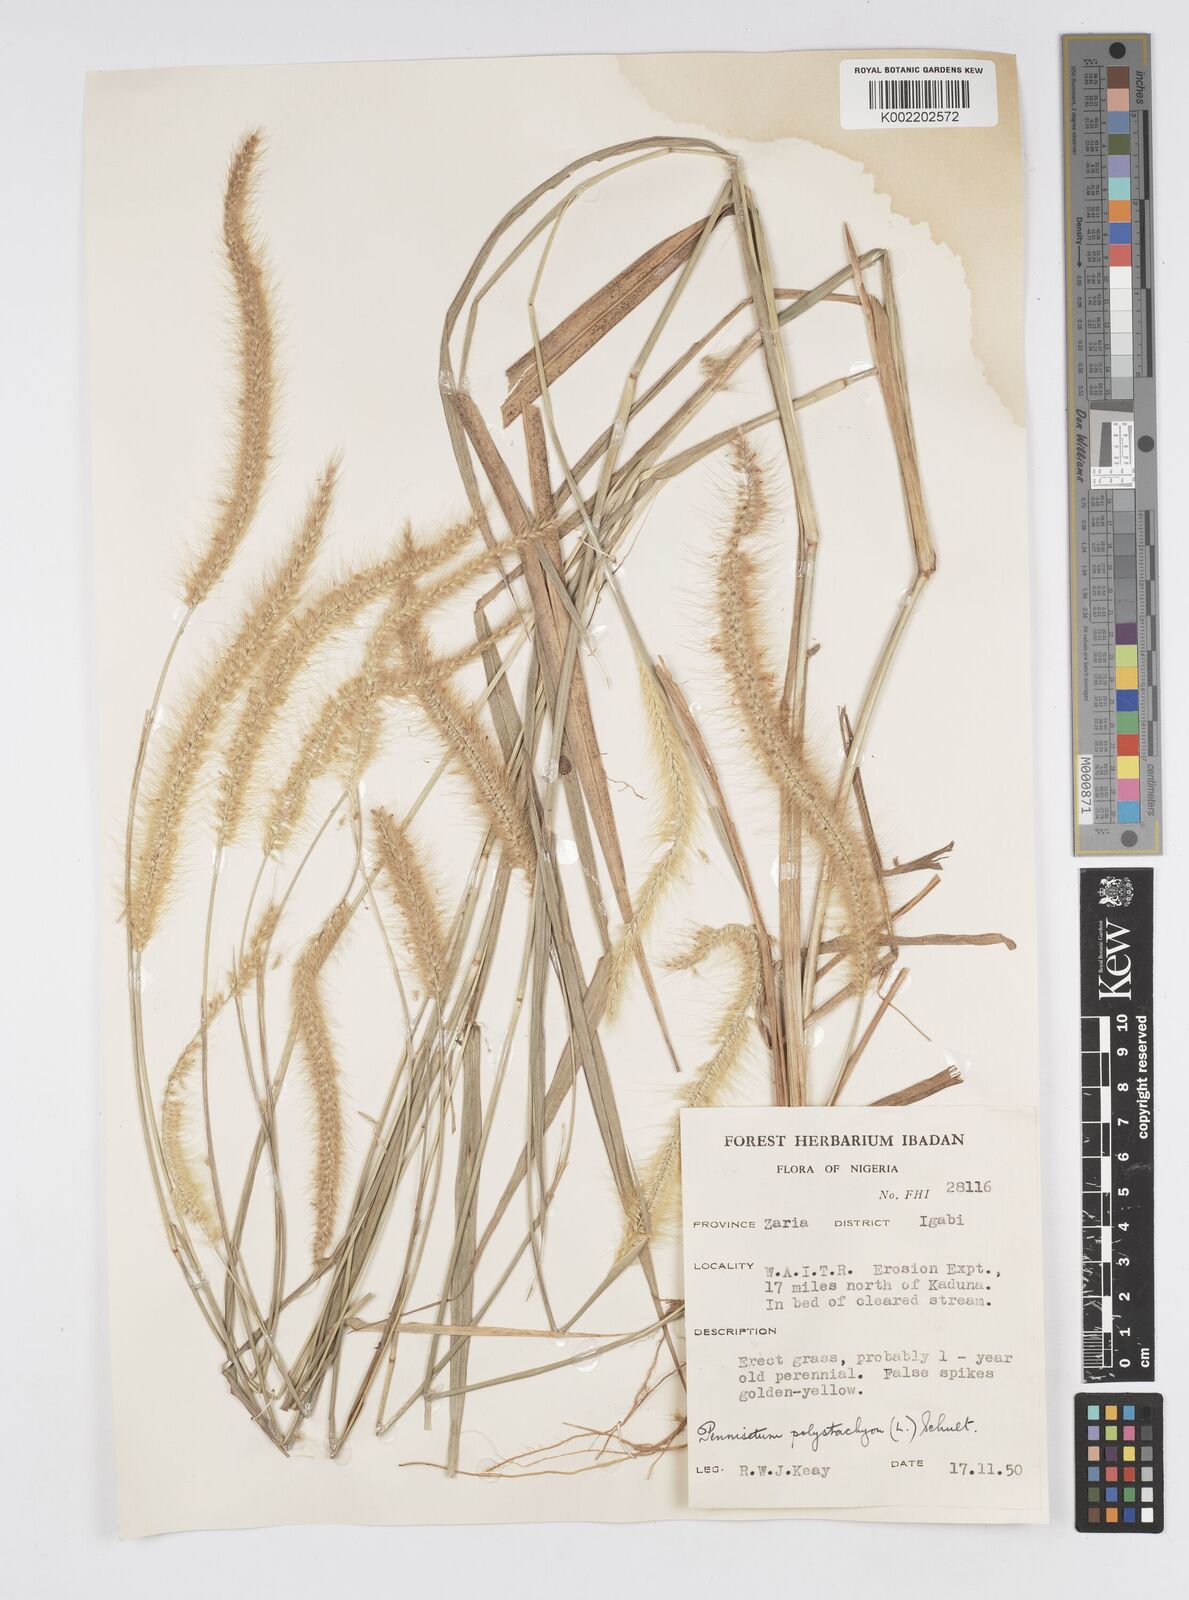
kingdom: Plantae
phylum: Tracheophyta
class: Liliopsida
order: Poales
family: Poaceae
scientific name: Poaceae
